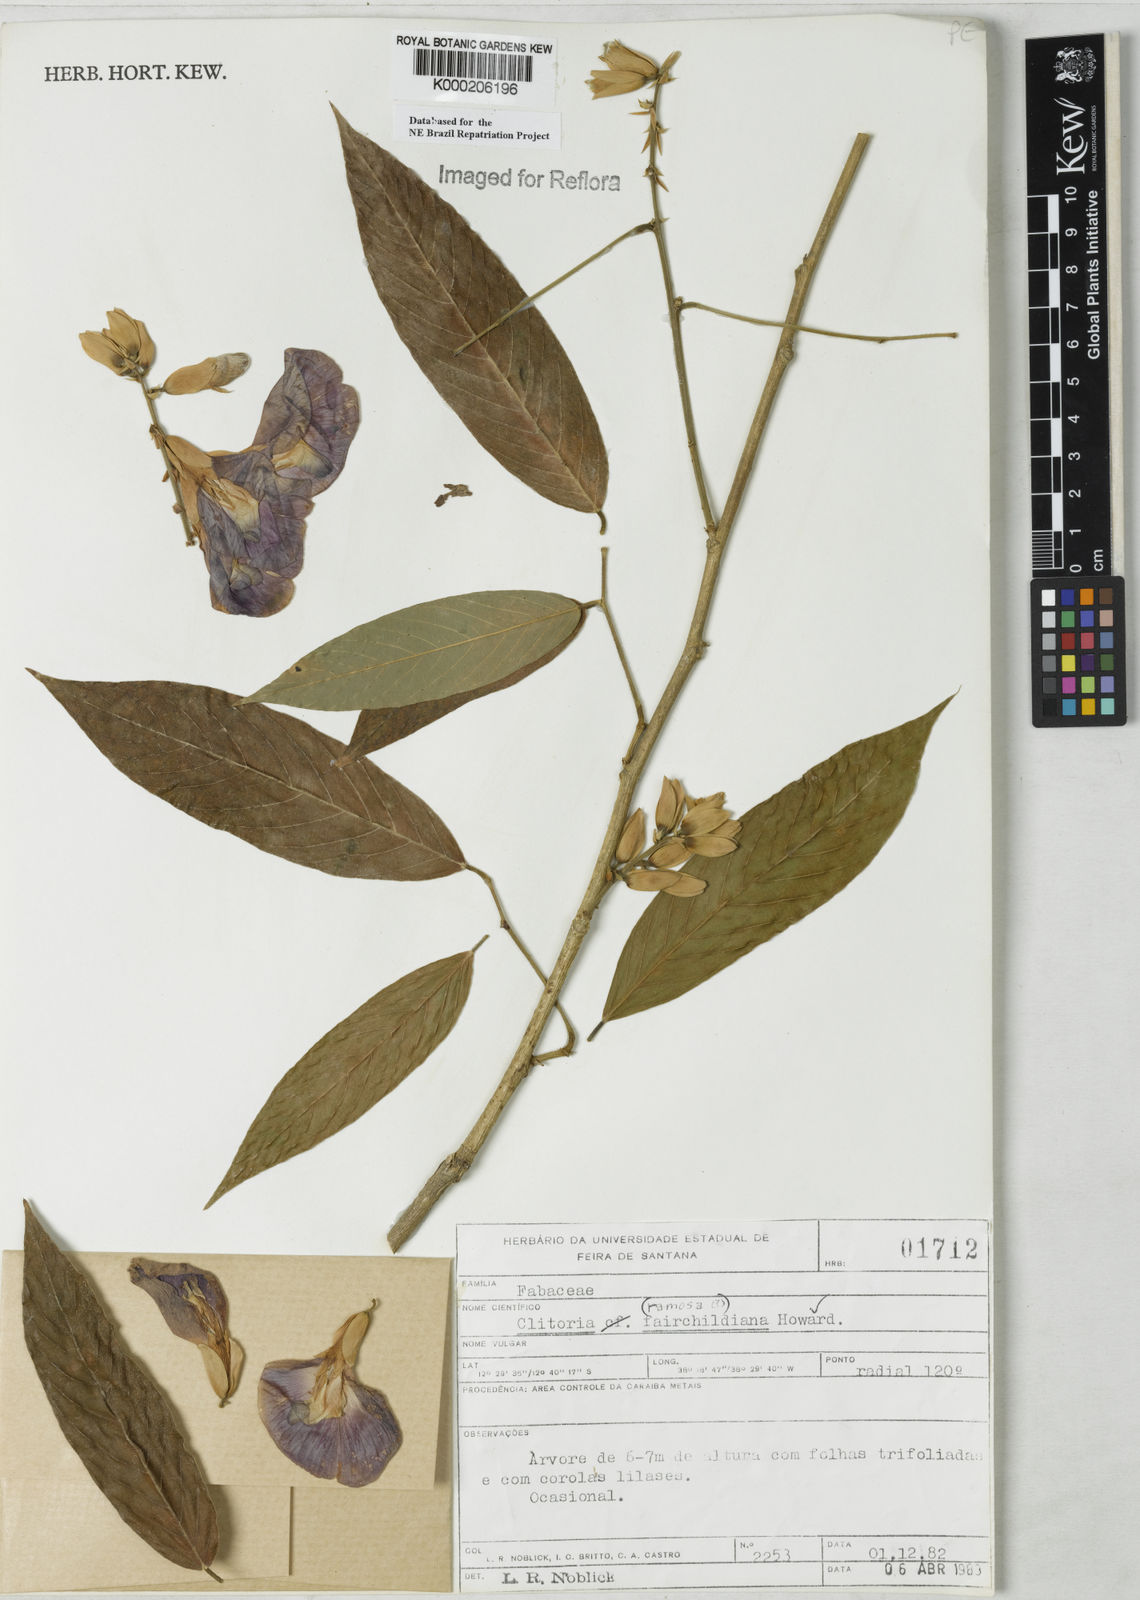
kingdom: Plantae
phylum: Tracheophyta
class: Magnoliopsida
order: Fabales
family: Fabaceae
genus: Clitoria
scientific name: Clitoria fairchildiana
